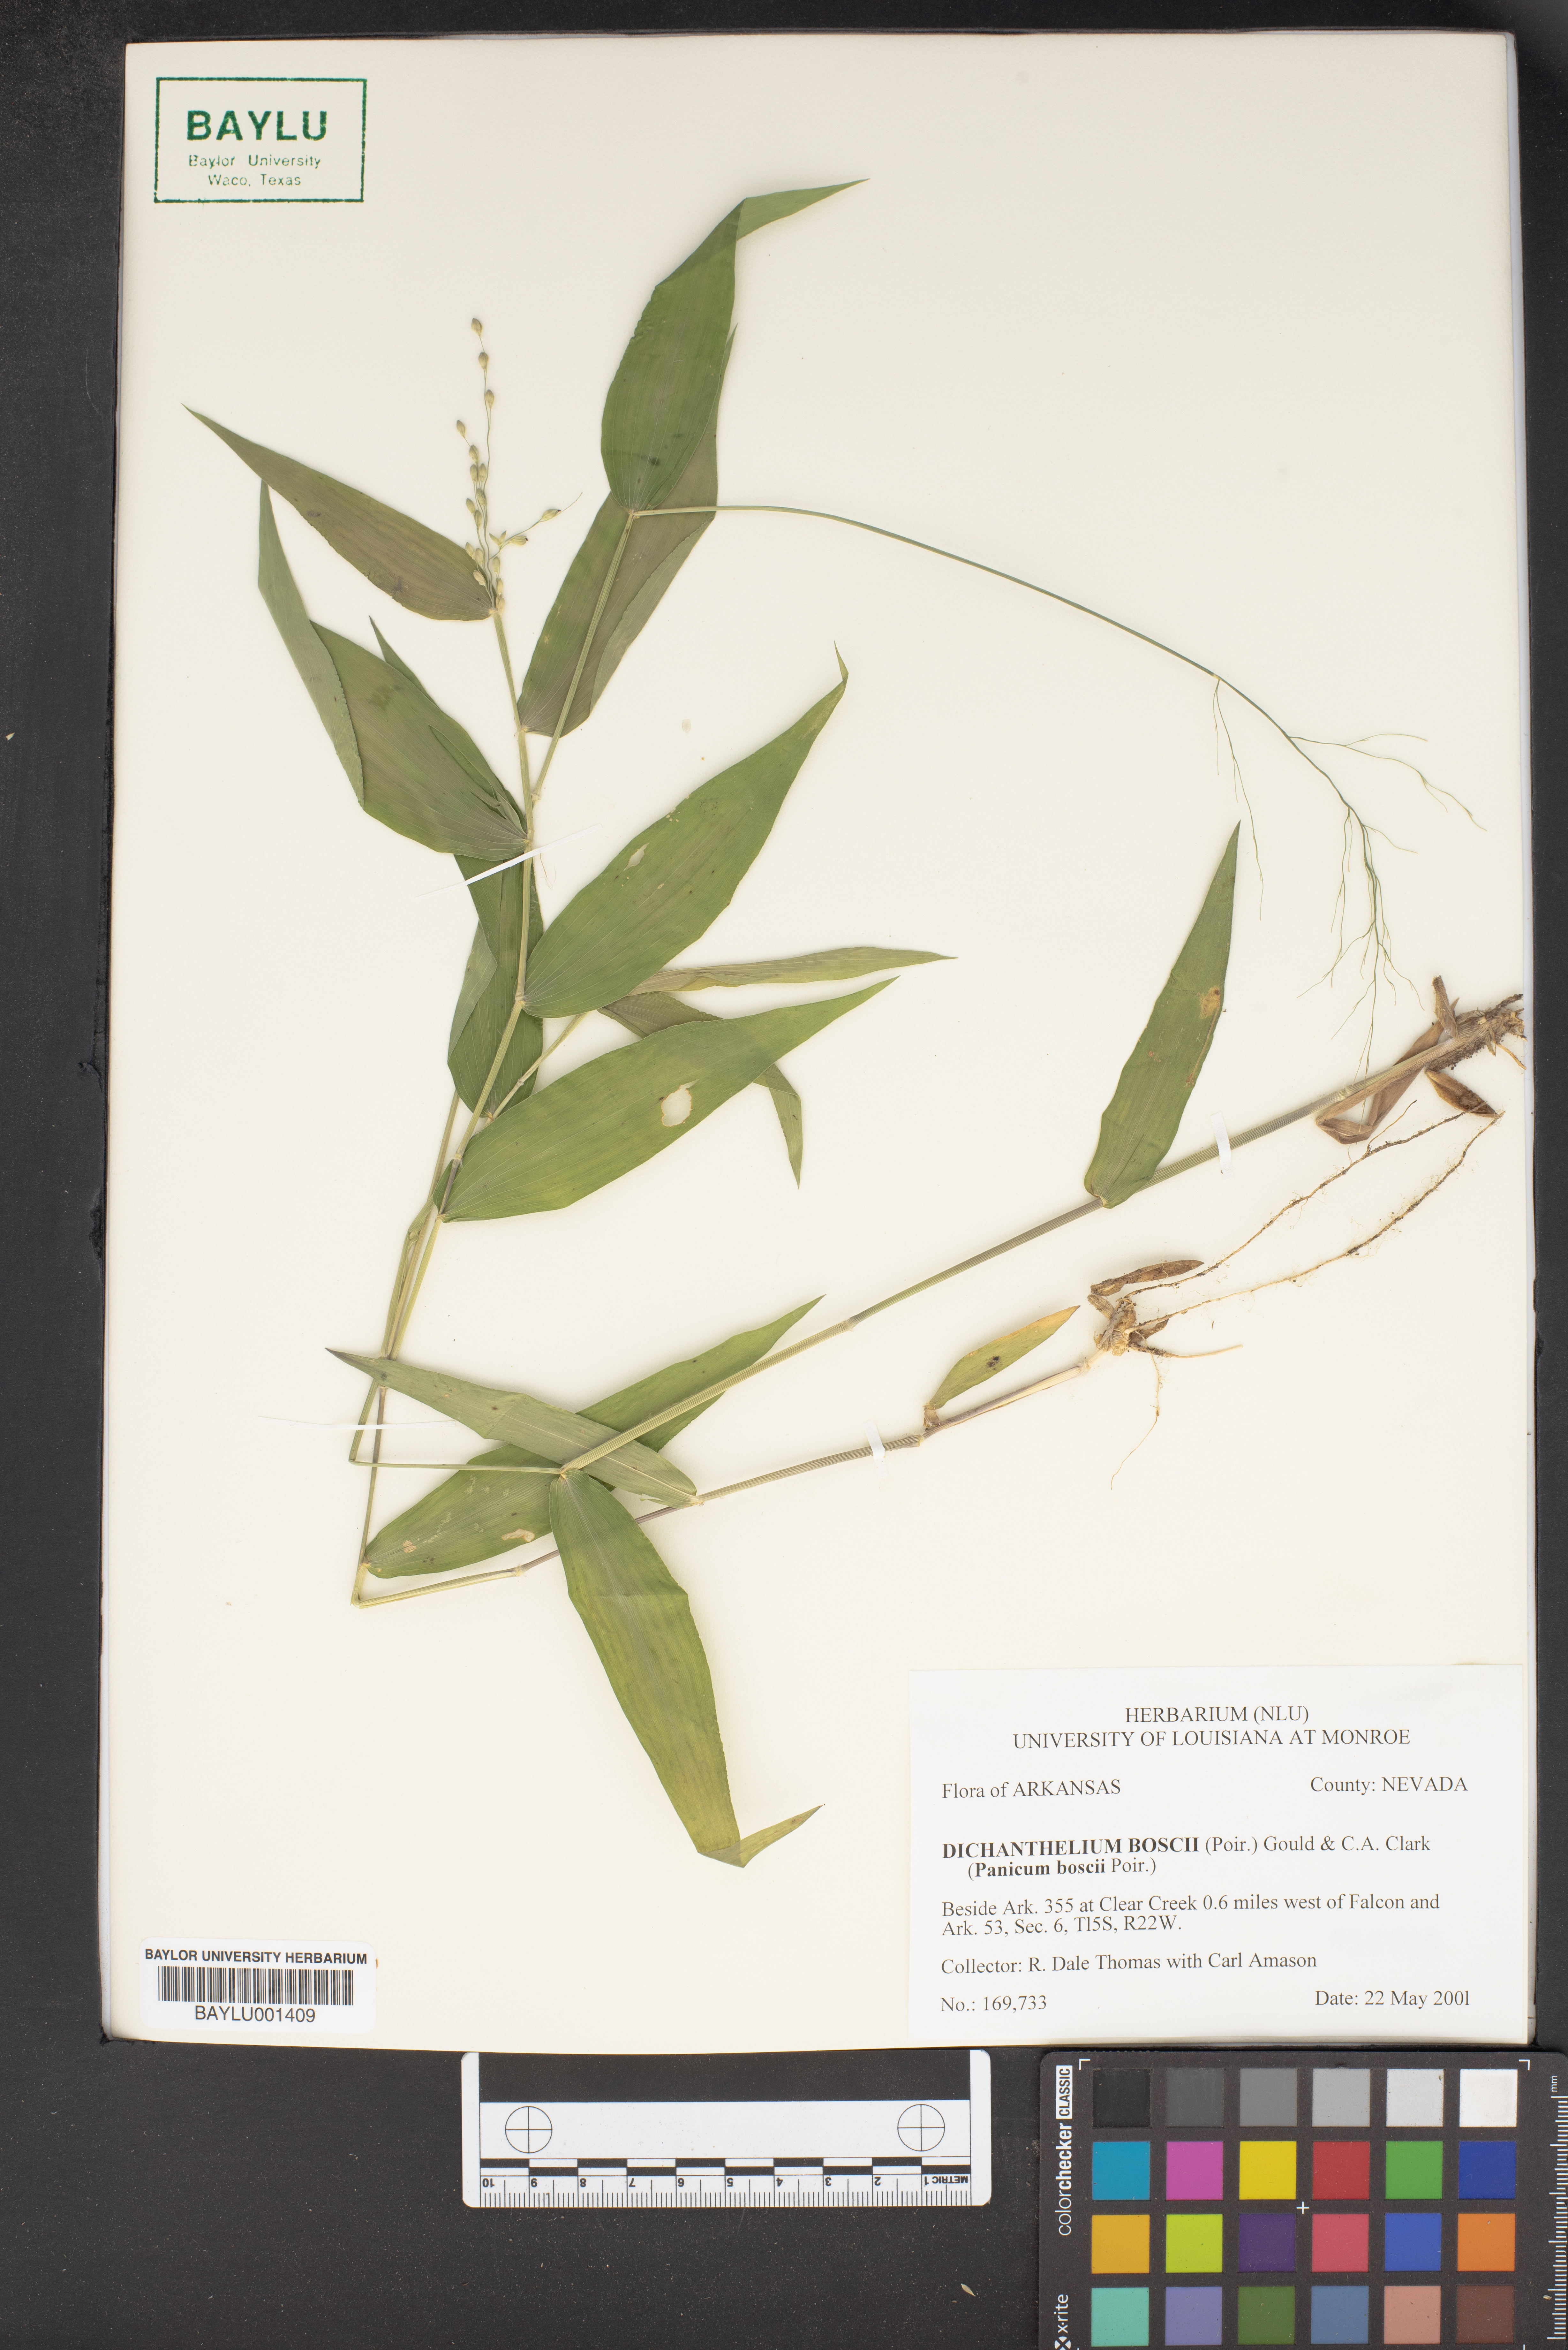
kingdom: Plantae
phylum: Tracheophyta
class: Liliopsida
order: Poales
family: Poaceae
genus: Dichanthelium
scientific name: Dichanthelium boscii
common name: Bosc's panic grass
